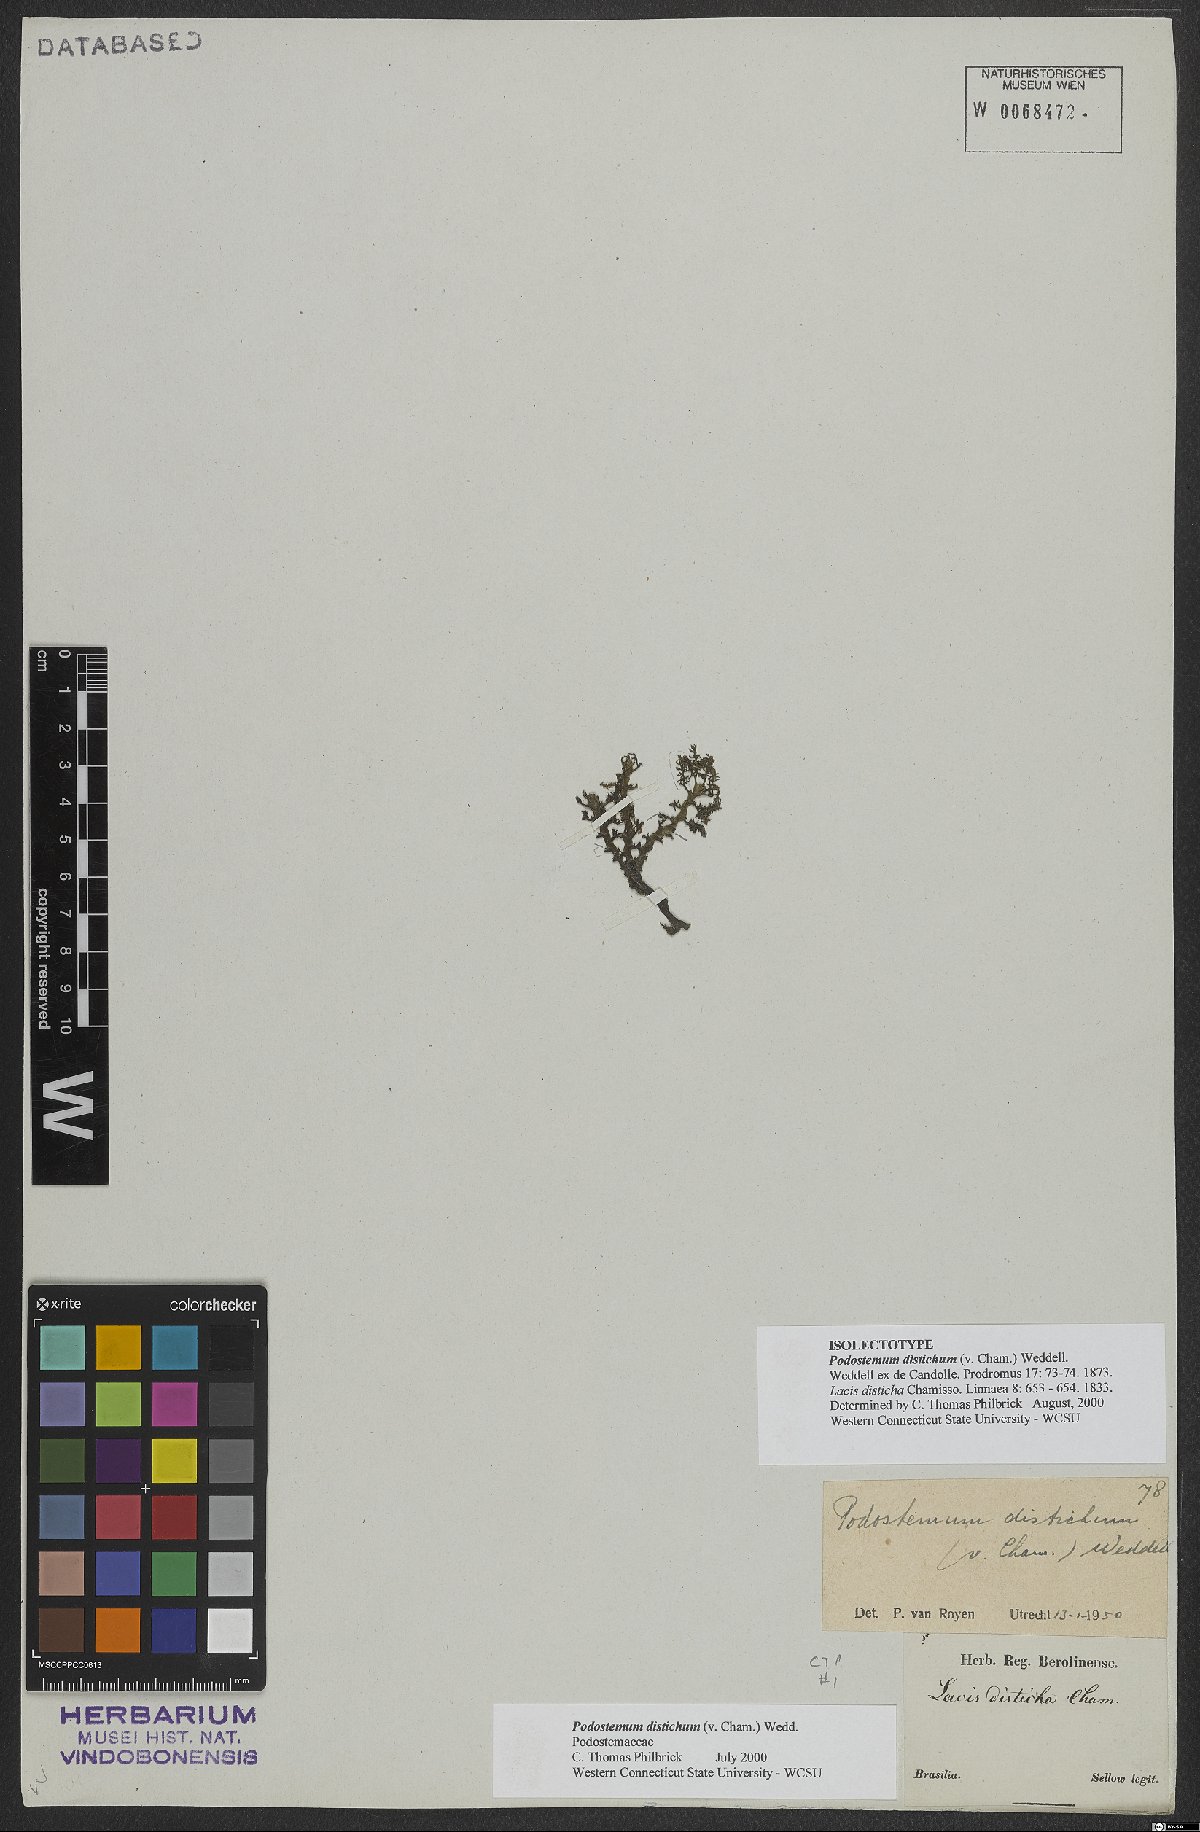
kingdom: Plantae
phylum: Tracheophyta
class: Magnoliopsida
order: Malpighiales
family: Podostemaceae
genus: Podostemum
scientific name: Podostemum distichum
